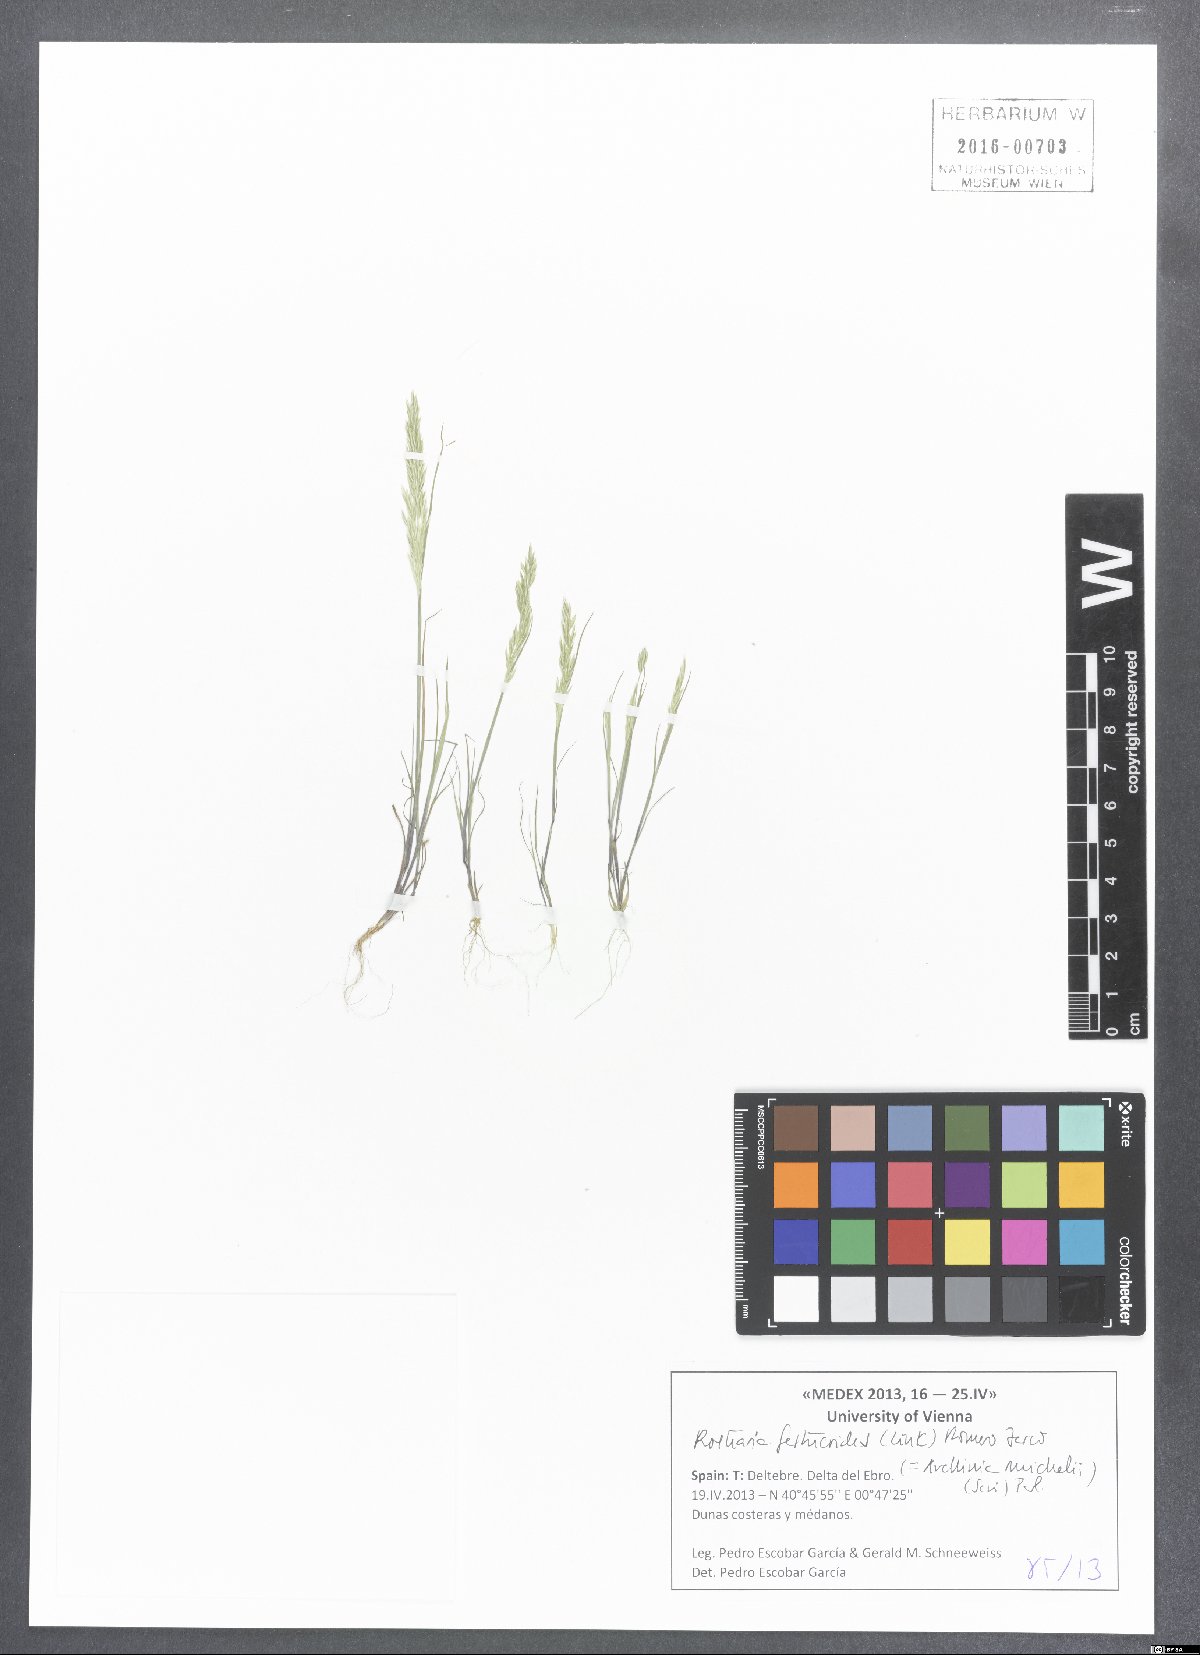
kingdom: Plantae
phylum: Tracheophyta
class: Liliopsida
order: Poales
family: Poaceae
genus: Avellinia
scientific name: Avellinia festucoides
